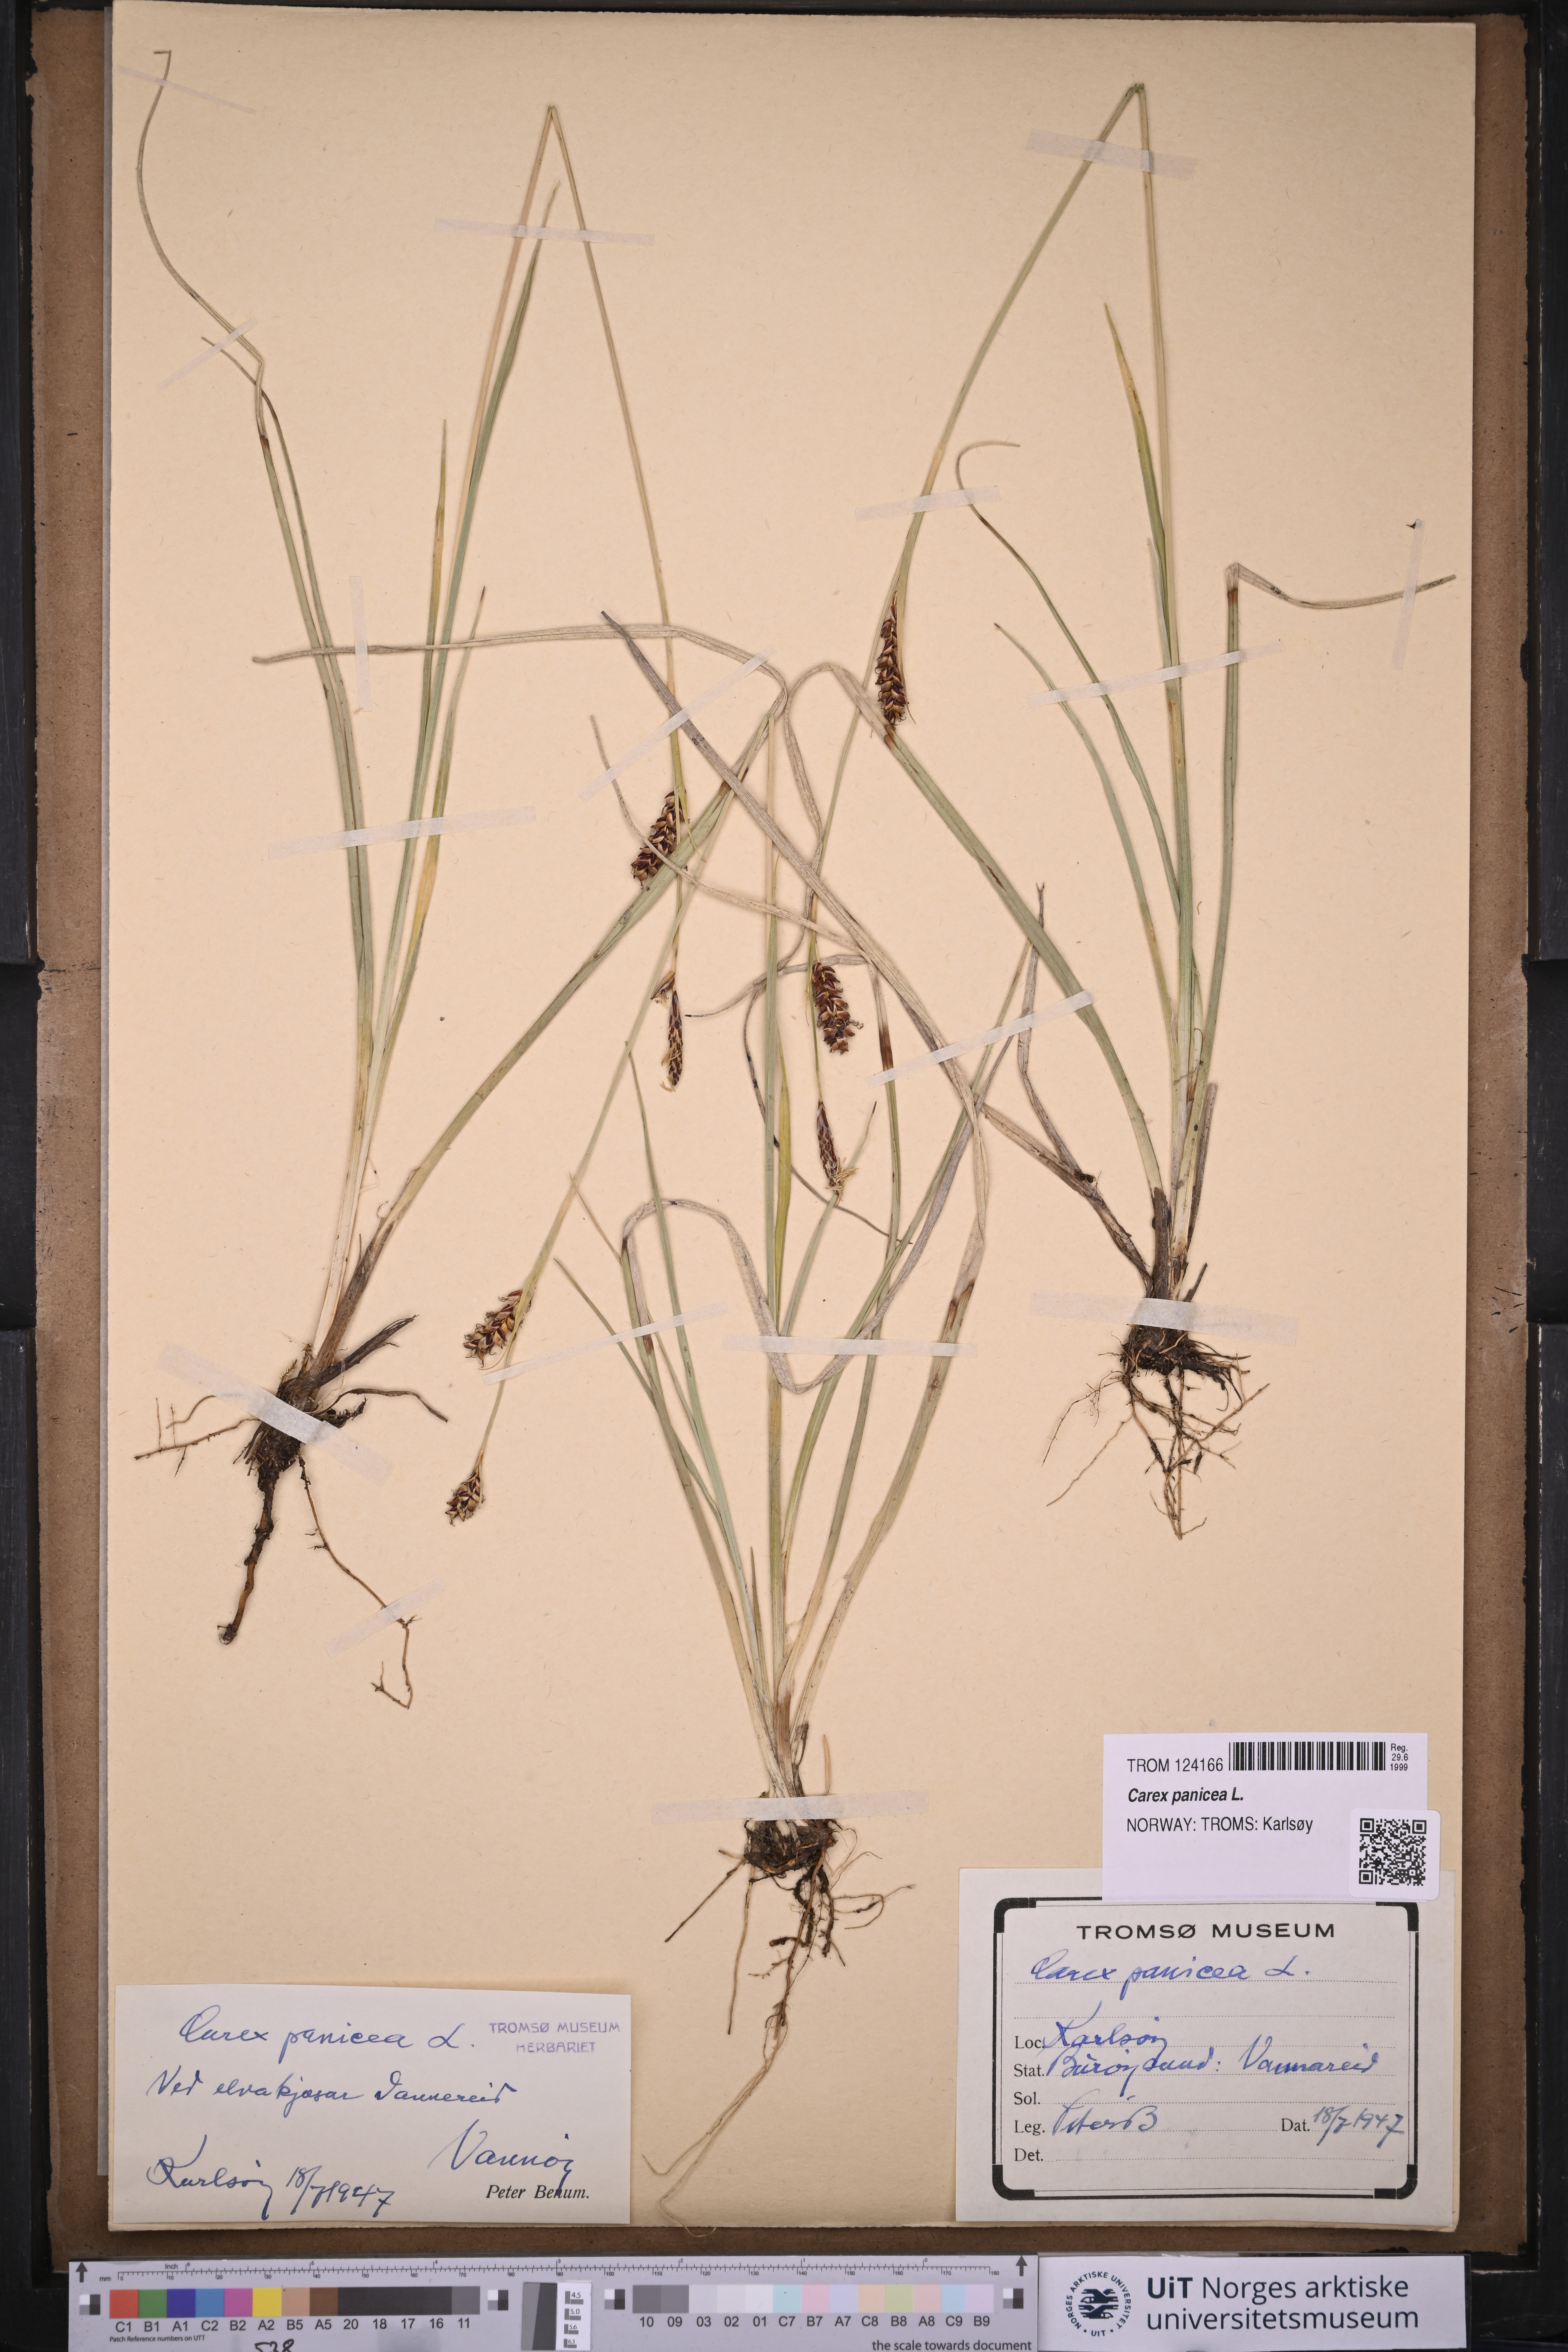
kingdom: Plantae
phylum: Tracheophyta
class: Liliopsida
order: Poales
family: Cyperaceae
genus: Carex
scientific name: Carex panicea
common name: Carnation sedge
